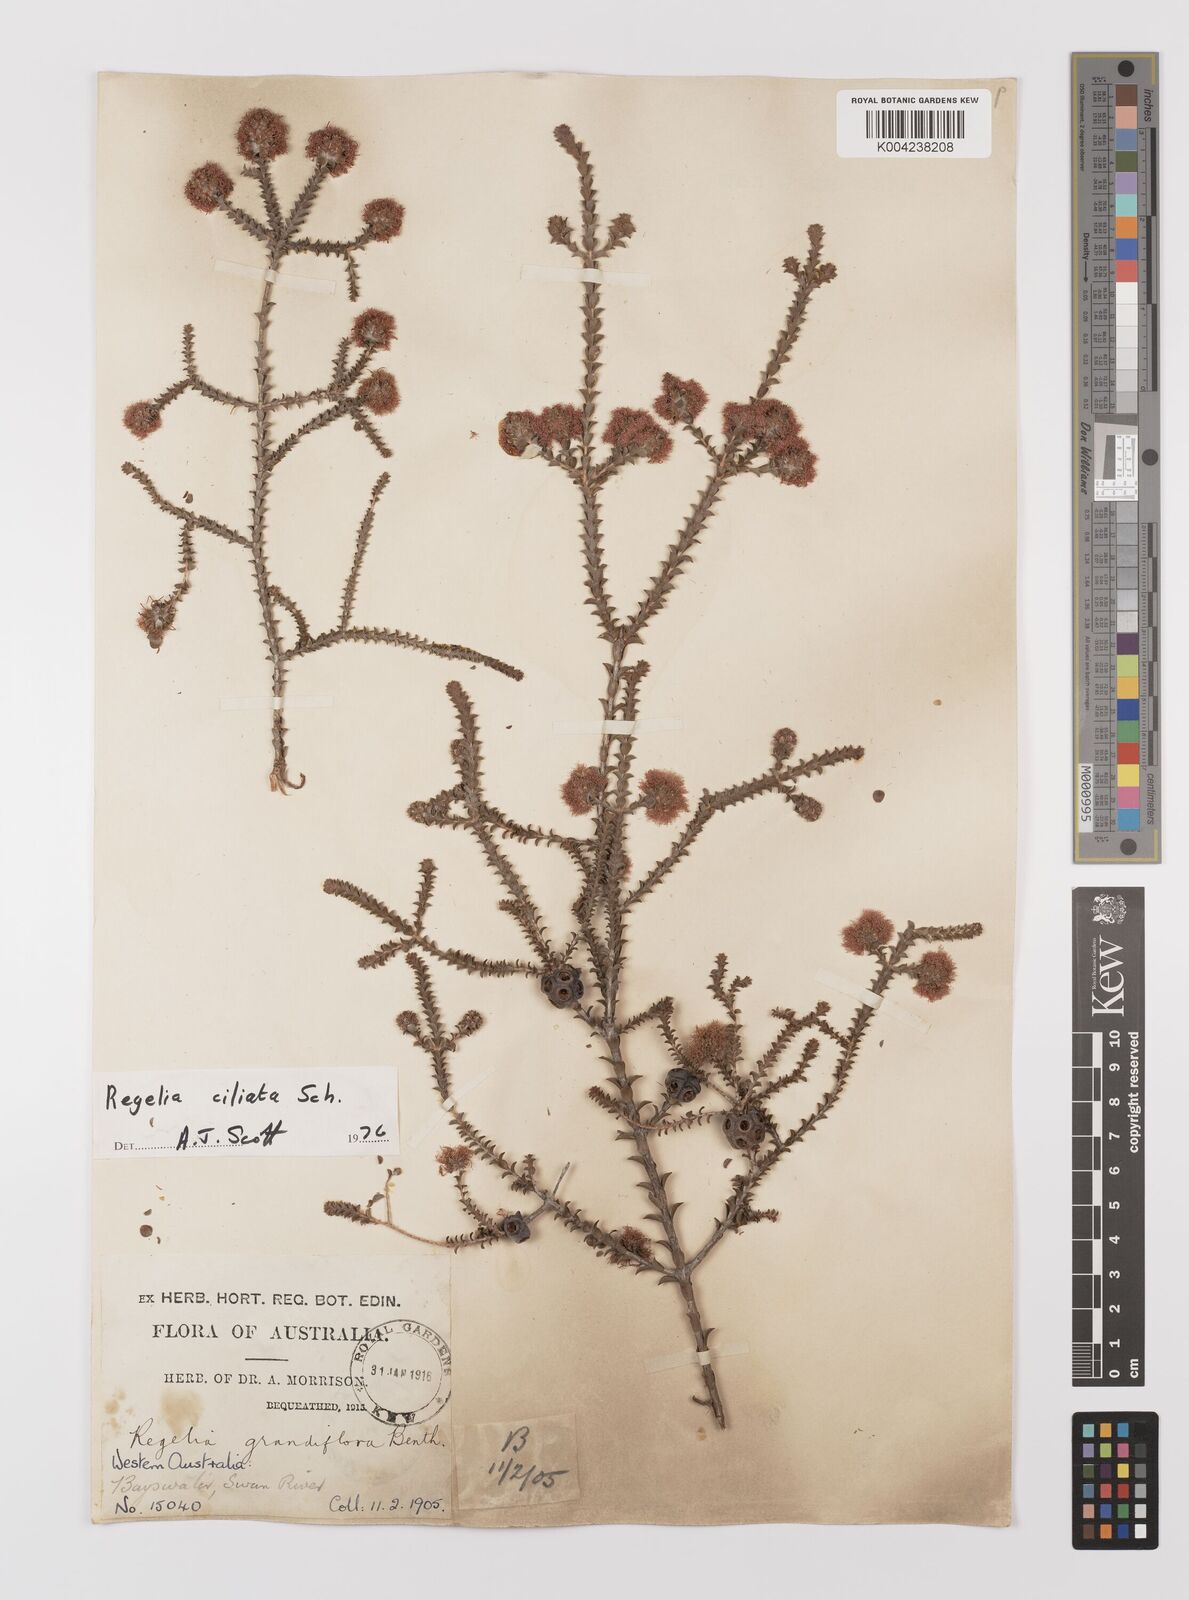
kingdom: Plantae
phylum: Tracheophyta
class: Magnoliopsida
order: Myrtales
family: Myrtaceae
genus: Melaleuca
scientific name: Melaleuca crossota
